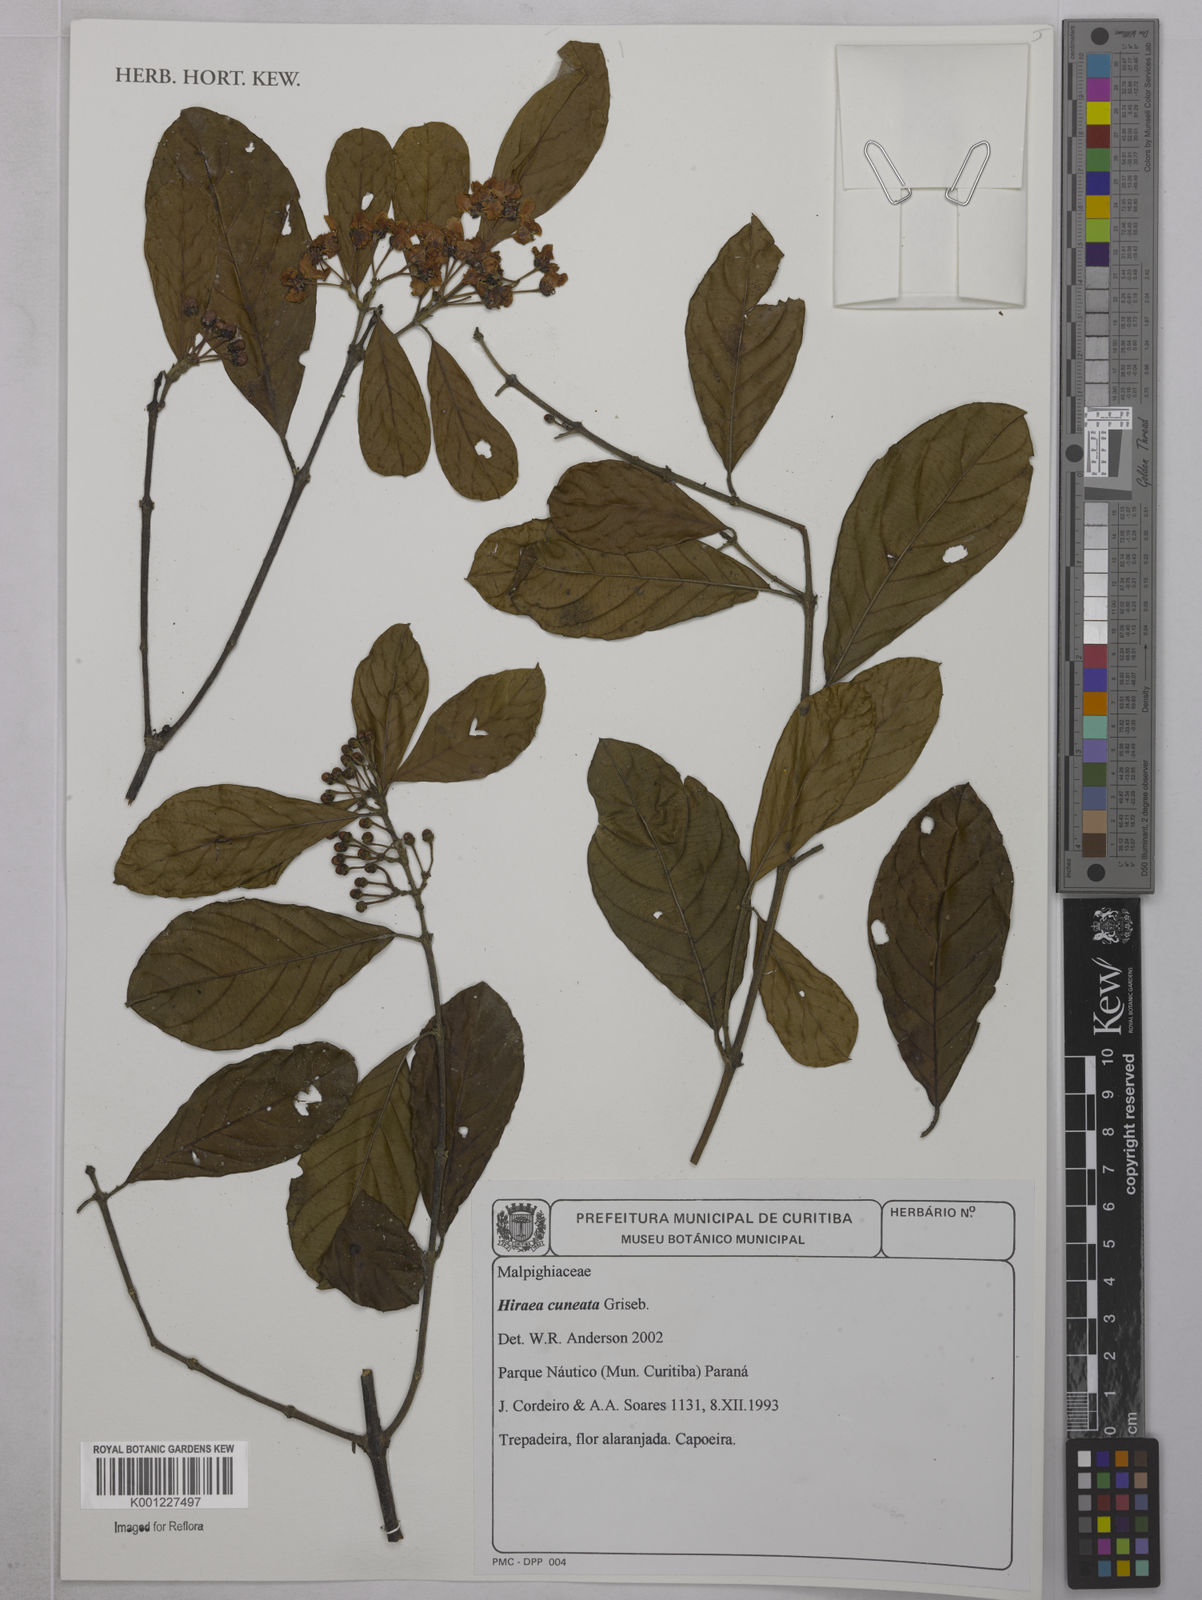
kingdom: Plantae
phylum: Tracheophyta
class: Magnoliopsida
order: Malpighiales
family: Malpighiaceae
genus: Hiraea
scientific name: Hiraea cuneata
